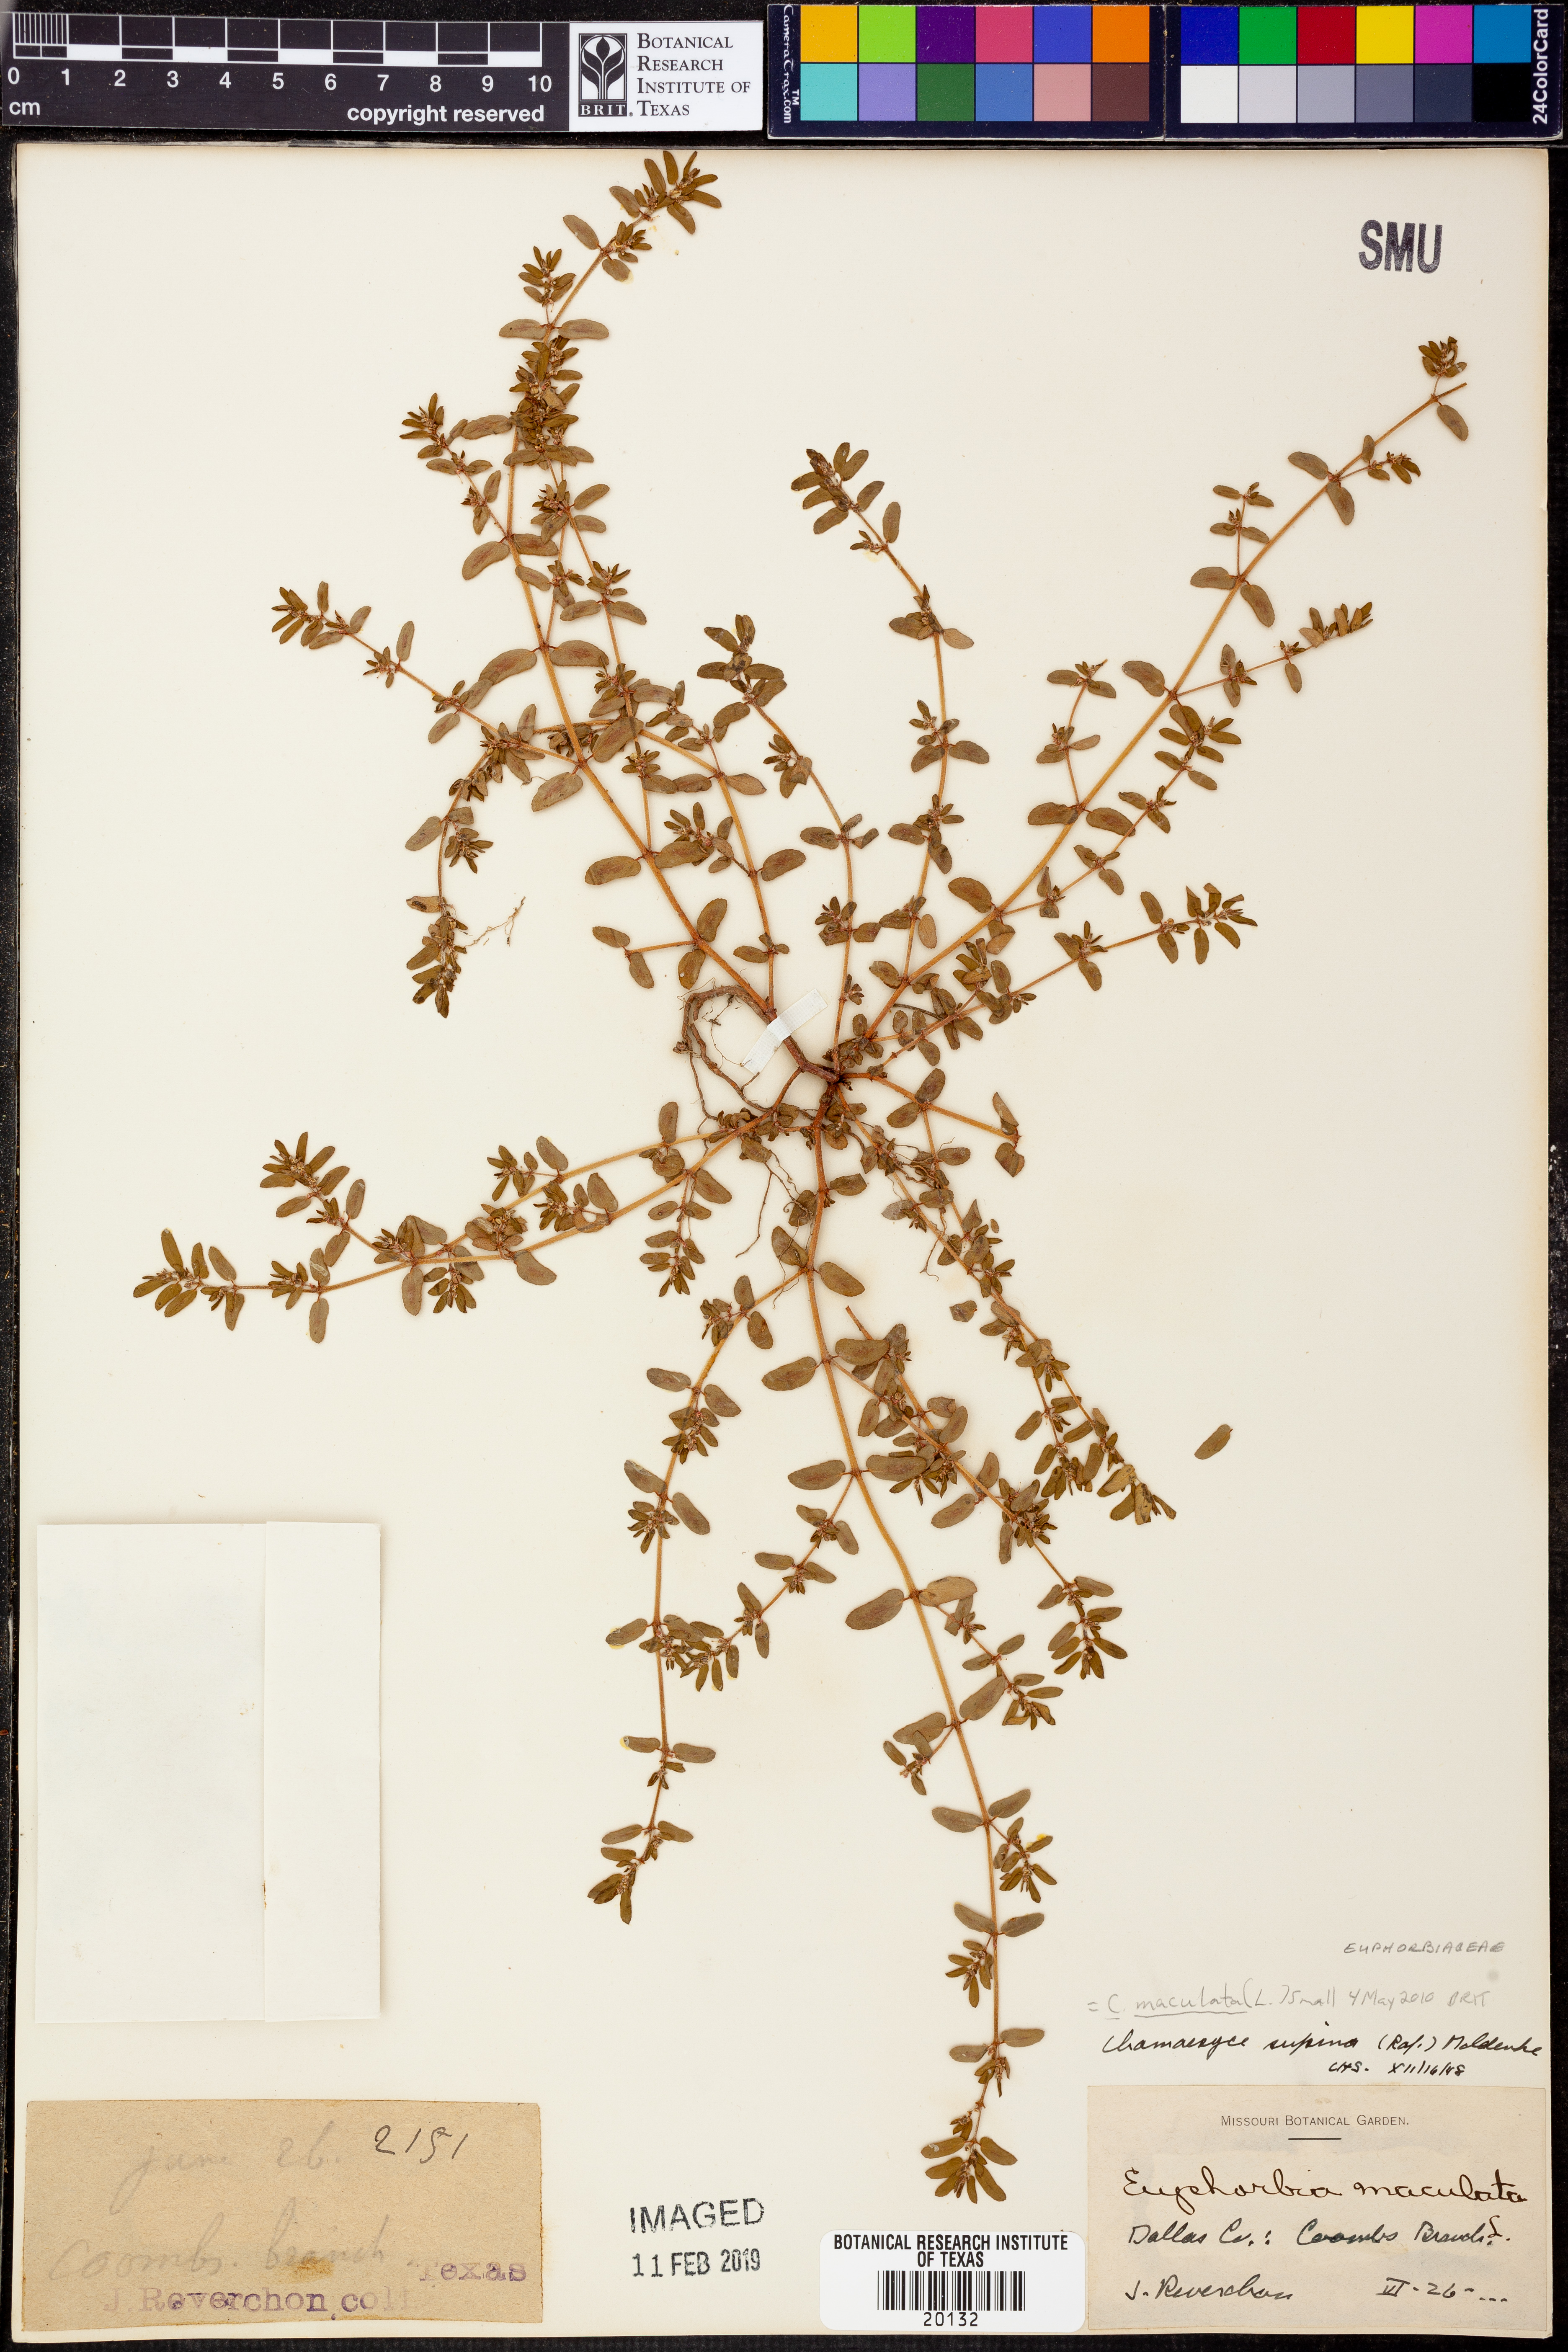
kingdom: Plantae
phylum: Tracheophyta
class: Magnoliopsida
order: Malpighiales
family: Euphorbiaceae
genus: Euphorbia
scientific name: Euphorbia maculata
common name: Spotted spurge
